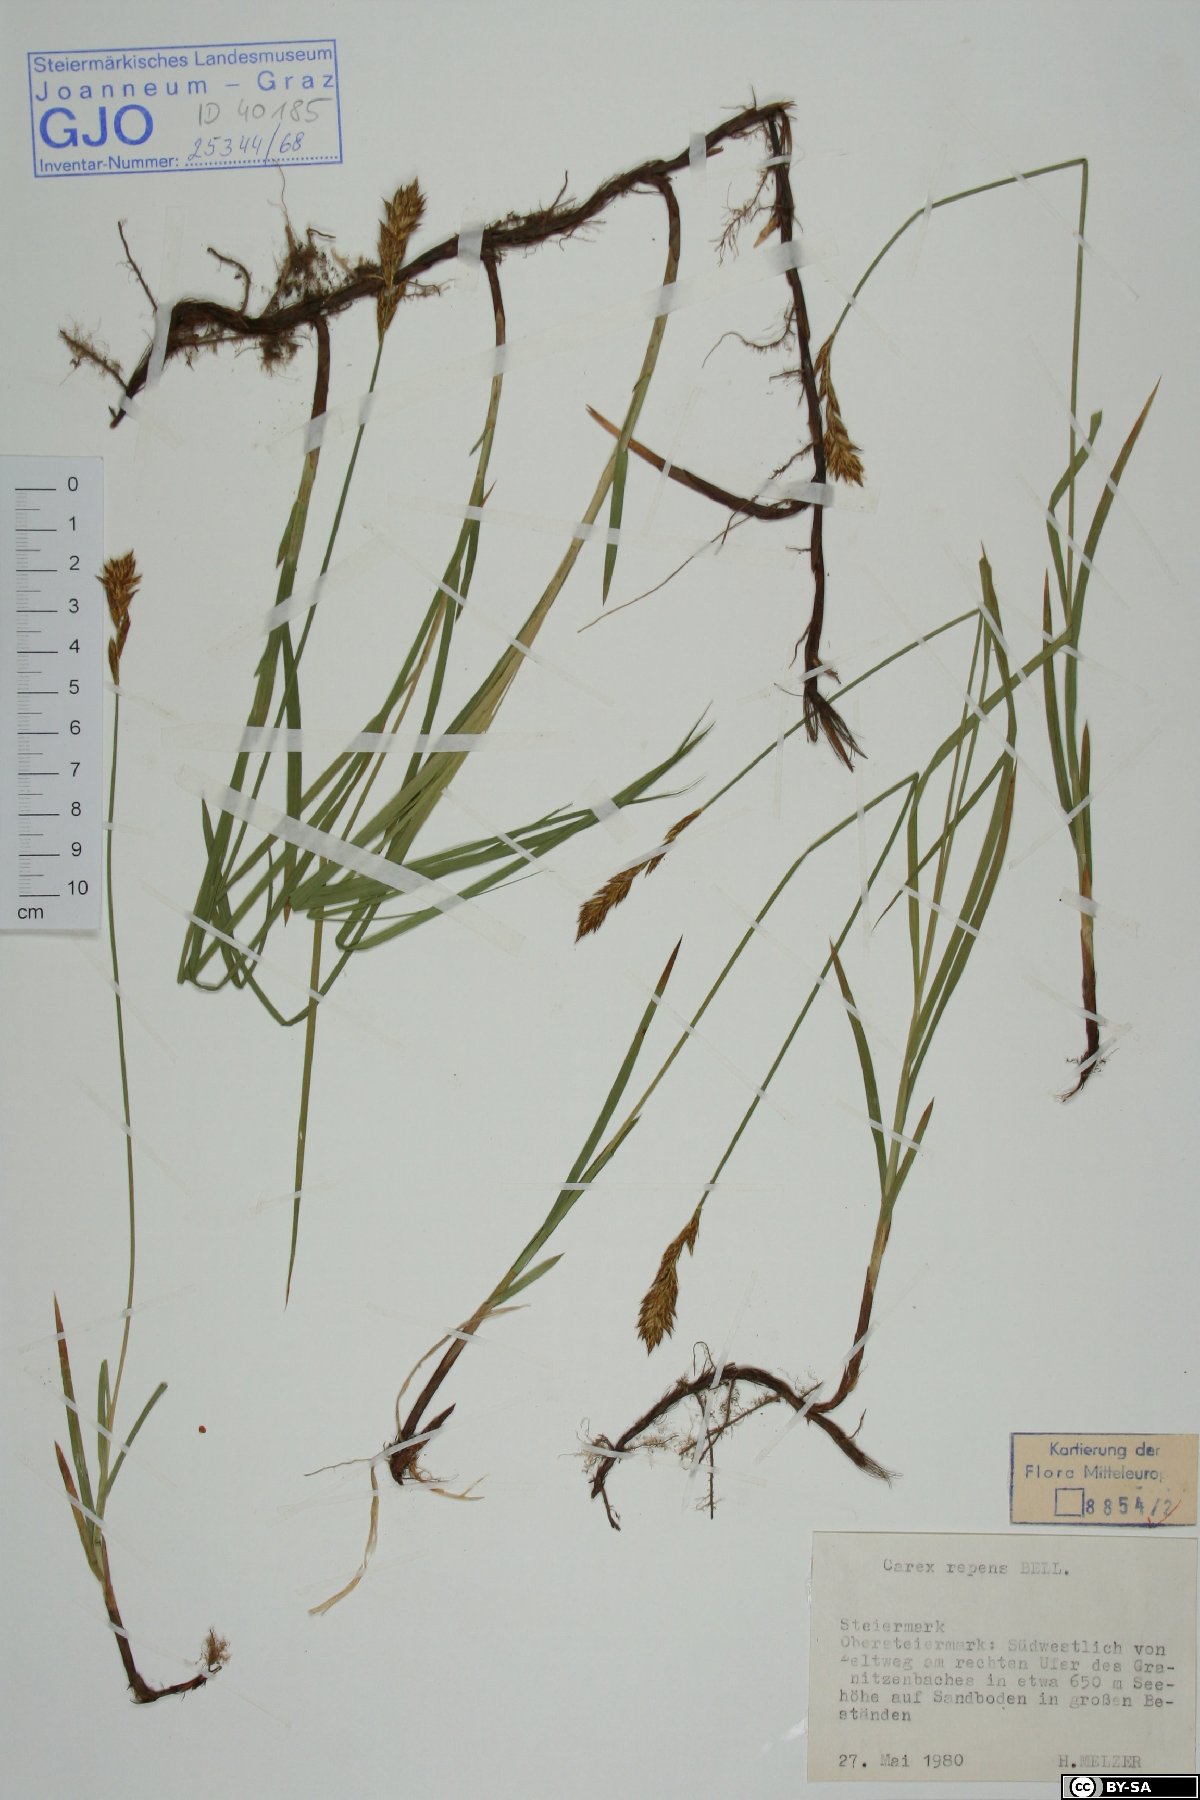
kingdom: Plantae
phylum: Tracheophyta
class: Liliopsida
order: Poales
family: Cyperaceae
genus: Carex
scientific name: Carex repens
